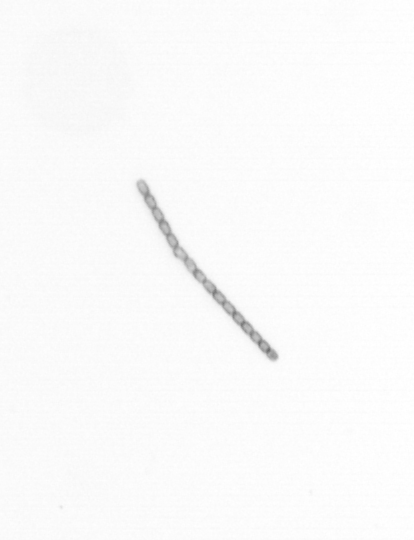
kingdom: Chromista
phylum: Ochrophyta
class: Bacillariophyceae
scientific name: Bacillariophyceae
